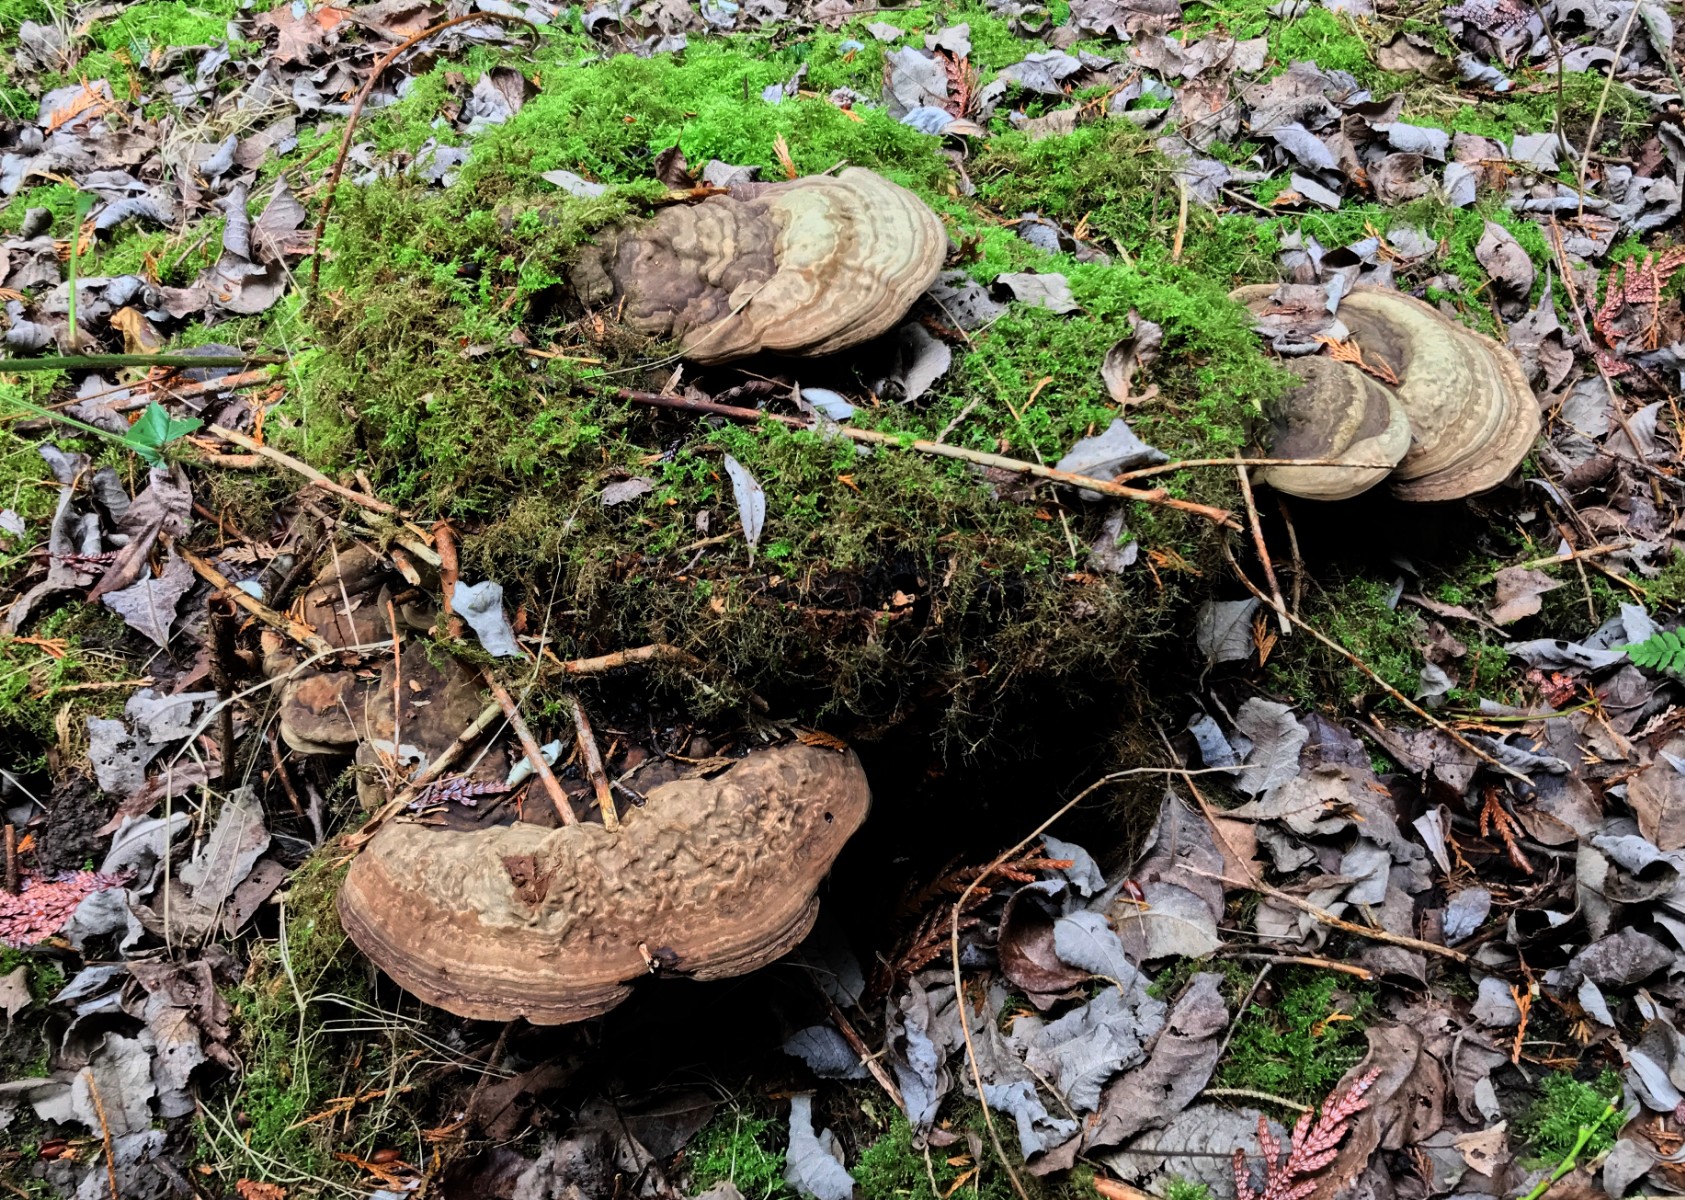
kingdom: Fungi
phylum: Basidiomycota
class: Agaricomycetes
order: Polyporales
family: Polyporaceae
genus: Ganoderma
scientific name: Ganoderma applanatum
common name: flad lakporesvamp
